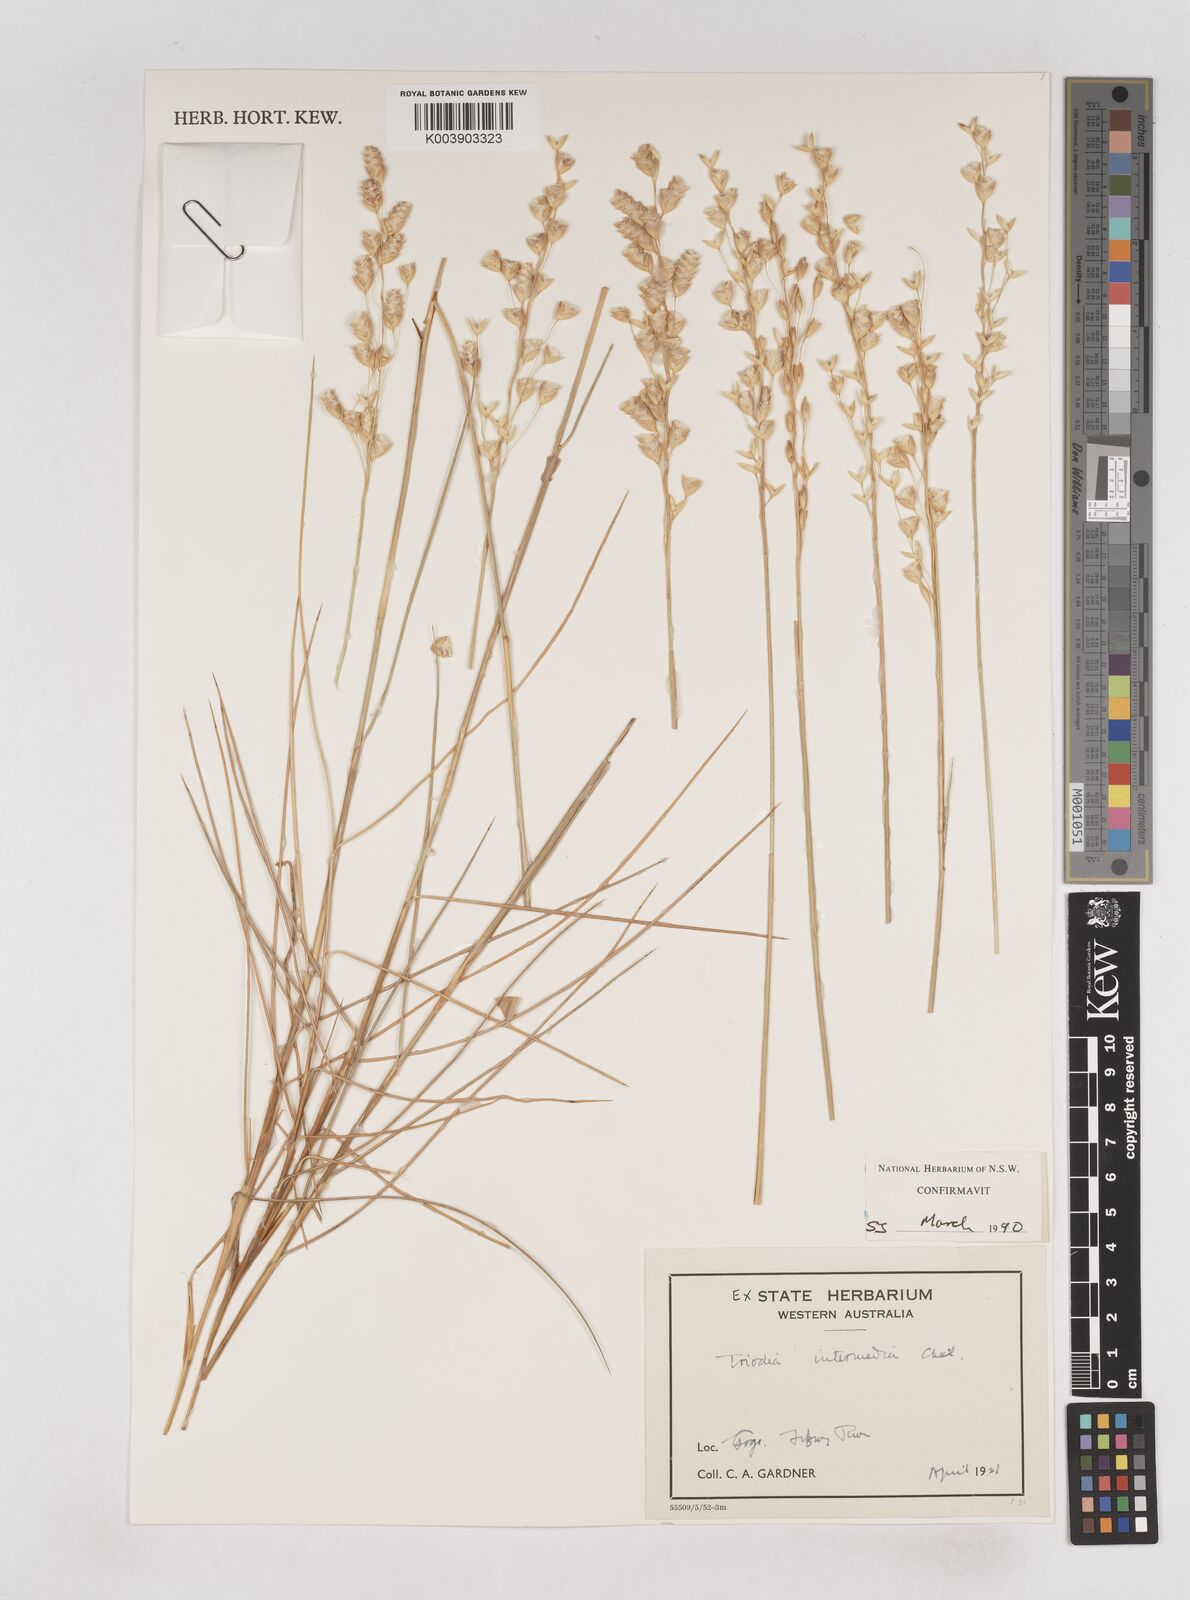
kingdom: Plantae
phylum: Tracheophyta
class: Liliopsida
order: Poales
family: Poaceae
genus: Triodia
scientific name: Triodia intermedia
